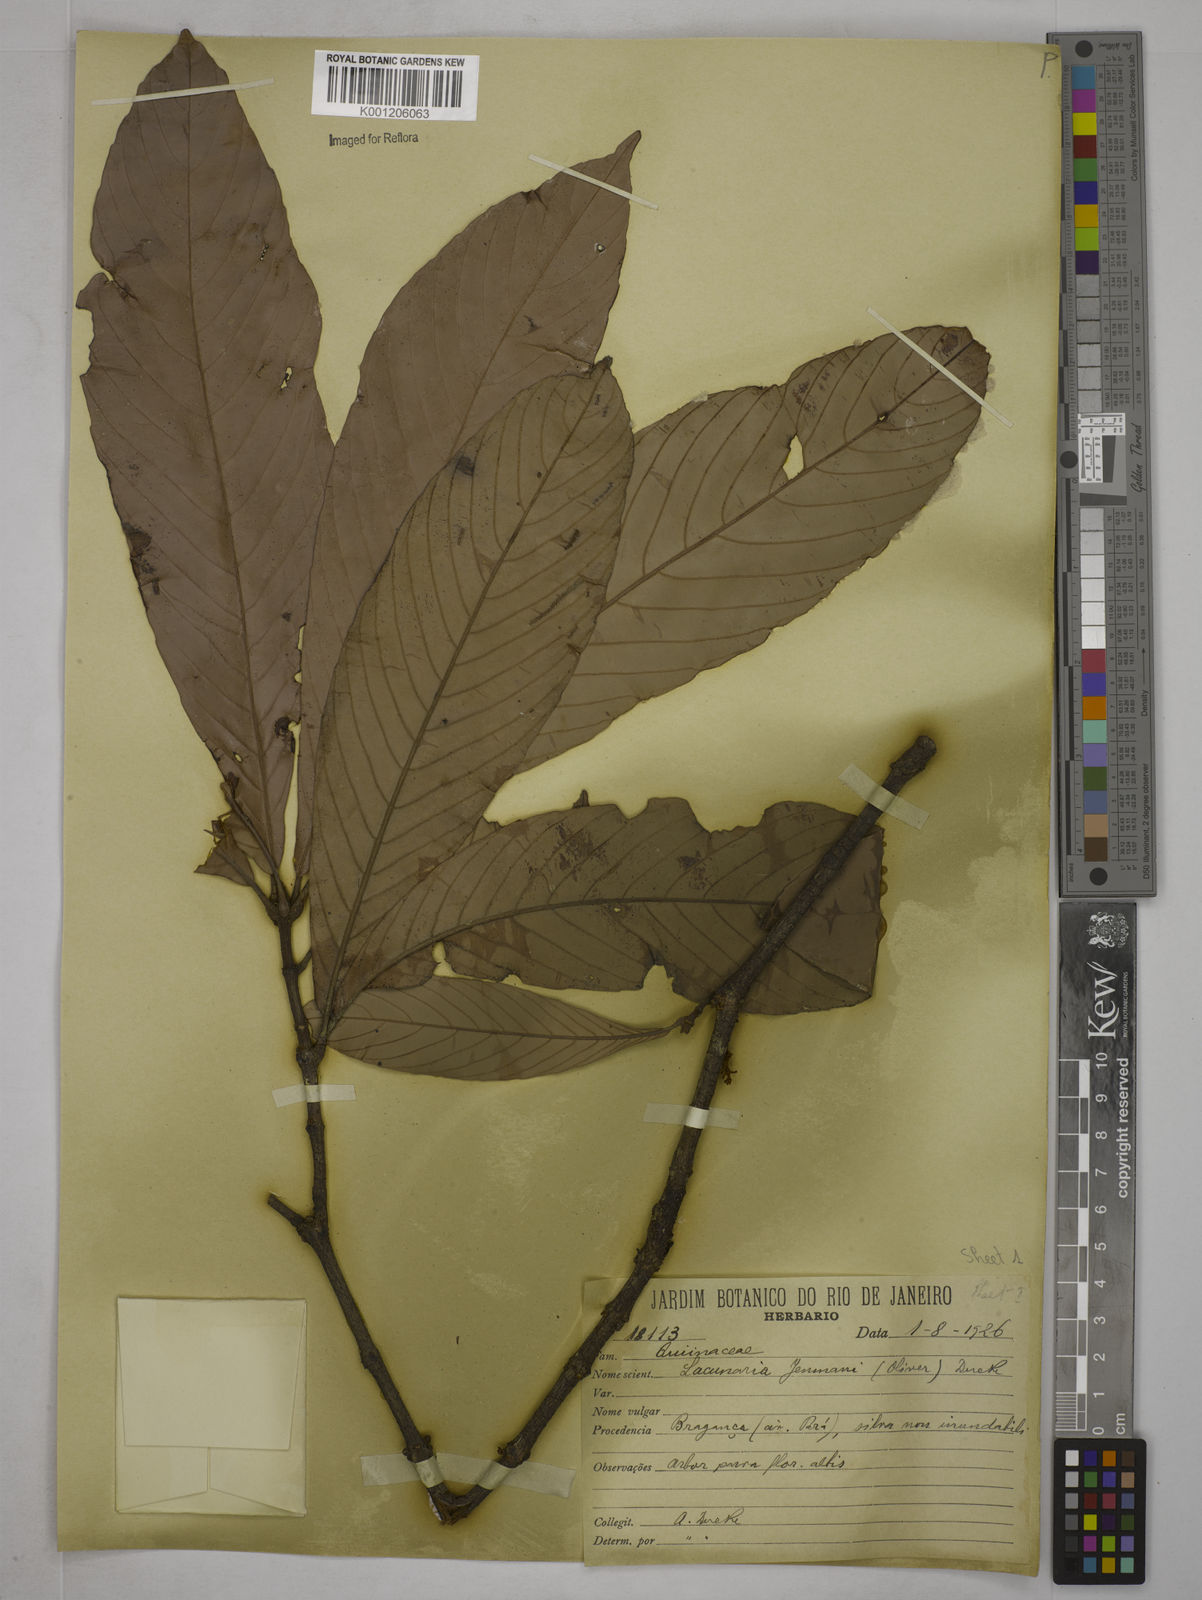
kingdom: Plantae
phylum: Tracheophyta
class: Magnoliopsida
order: Malpighiales
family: Quiinaceae
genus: Lacunaria
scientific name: Lacunaria jenmanii
